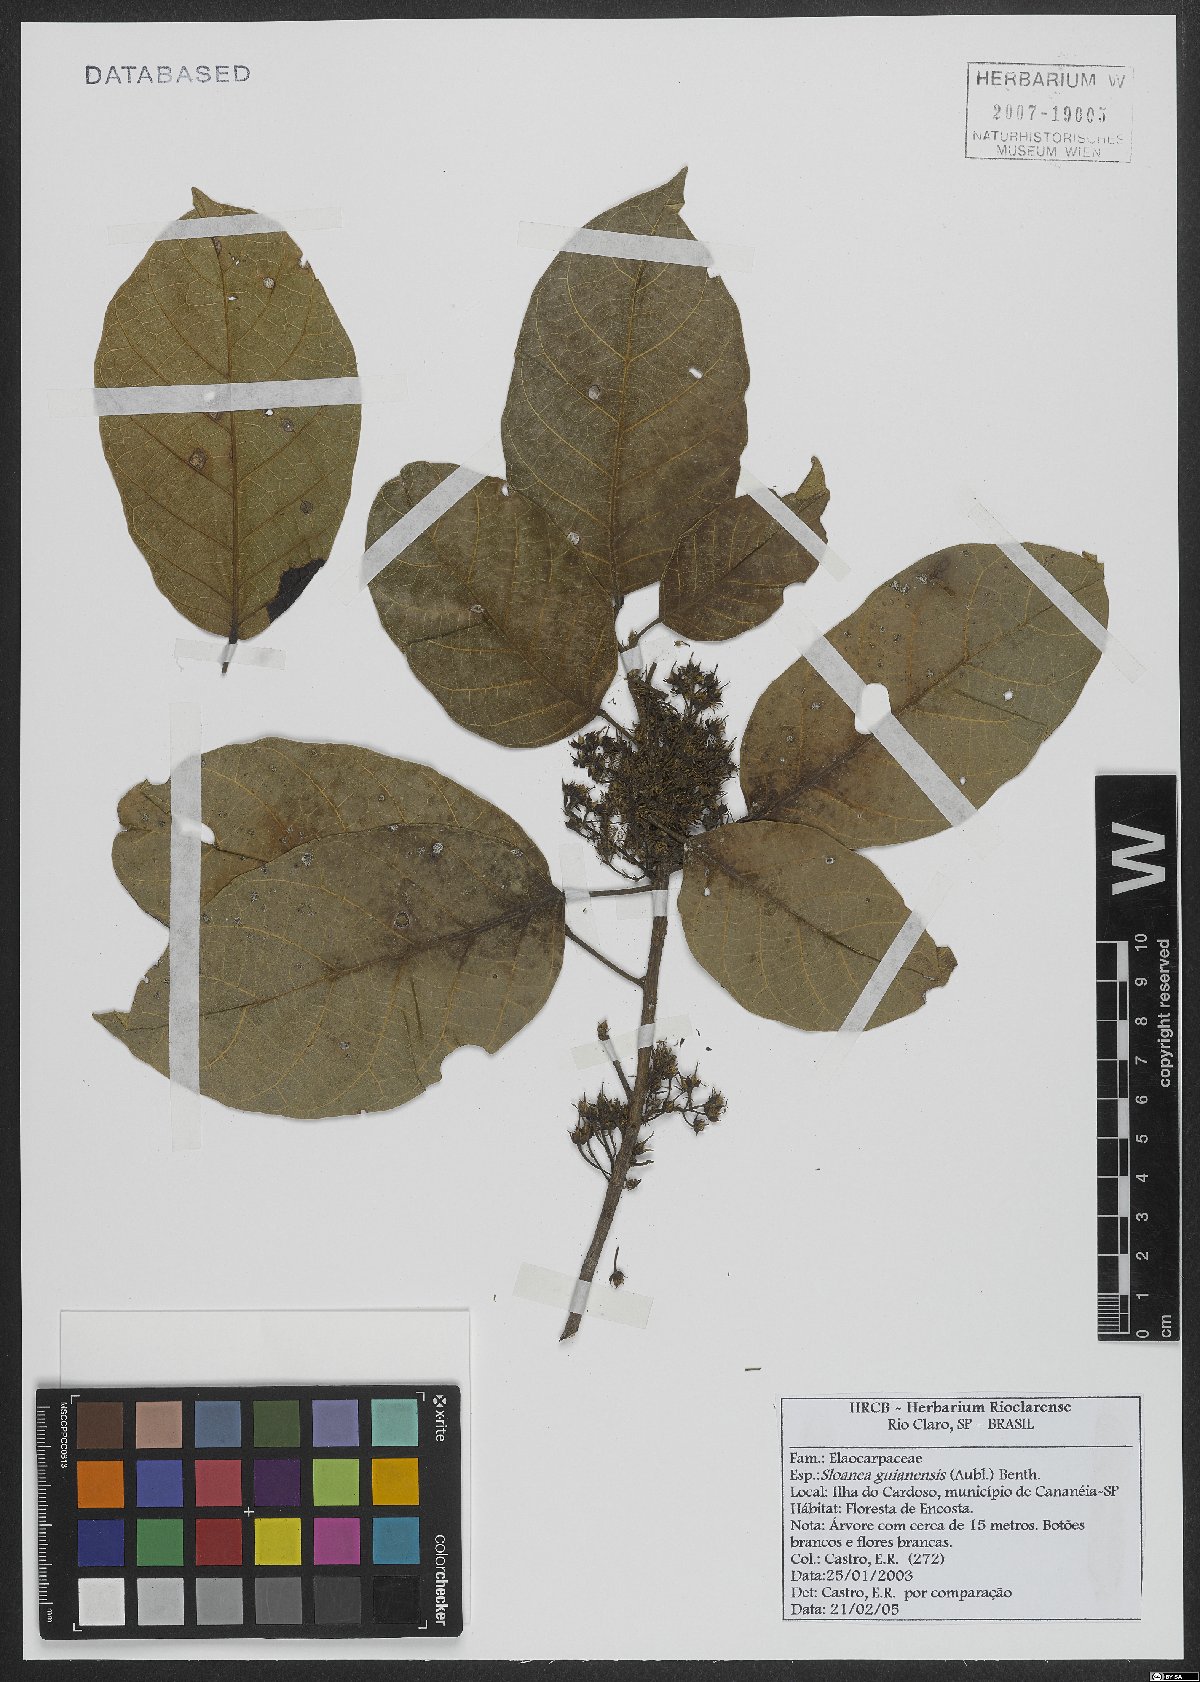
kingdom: Plantae
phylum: Tracheophyta
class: Magnoliopsida
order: Oxalidales
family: Elaeocarpaceae
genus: Sloanea
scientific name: Sloanea guianensis
